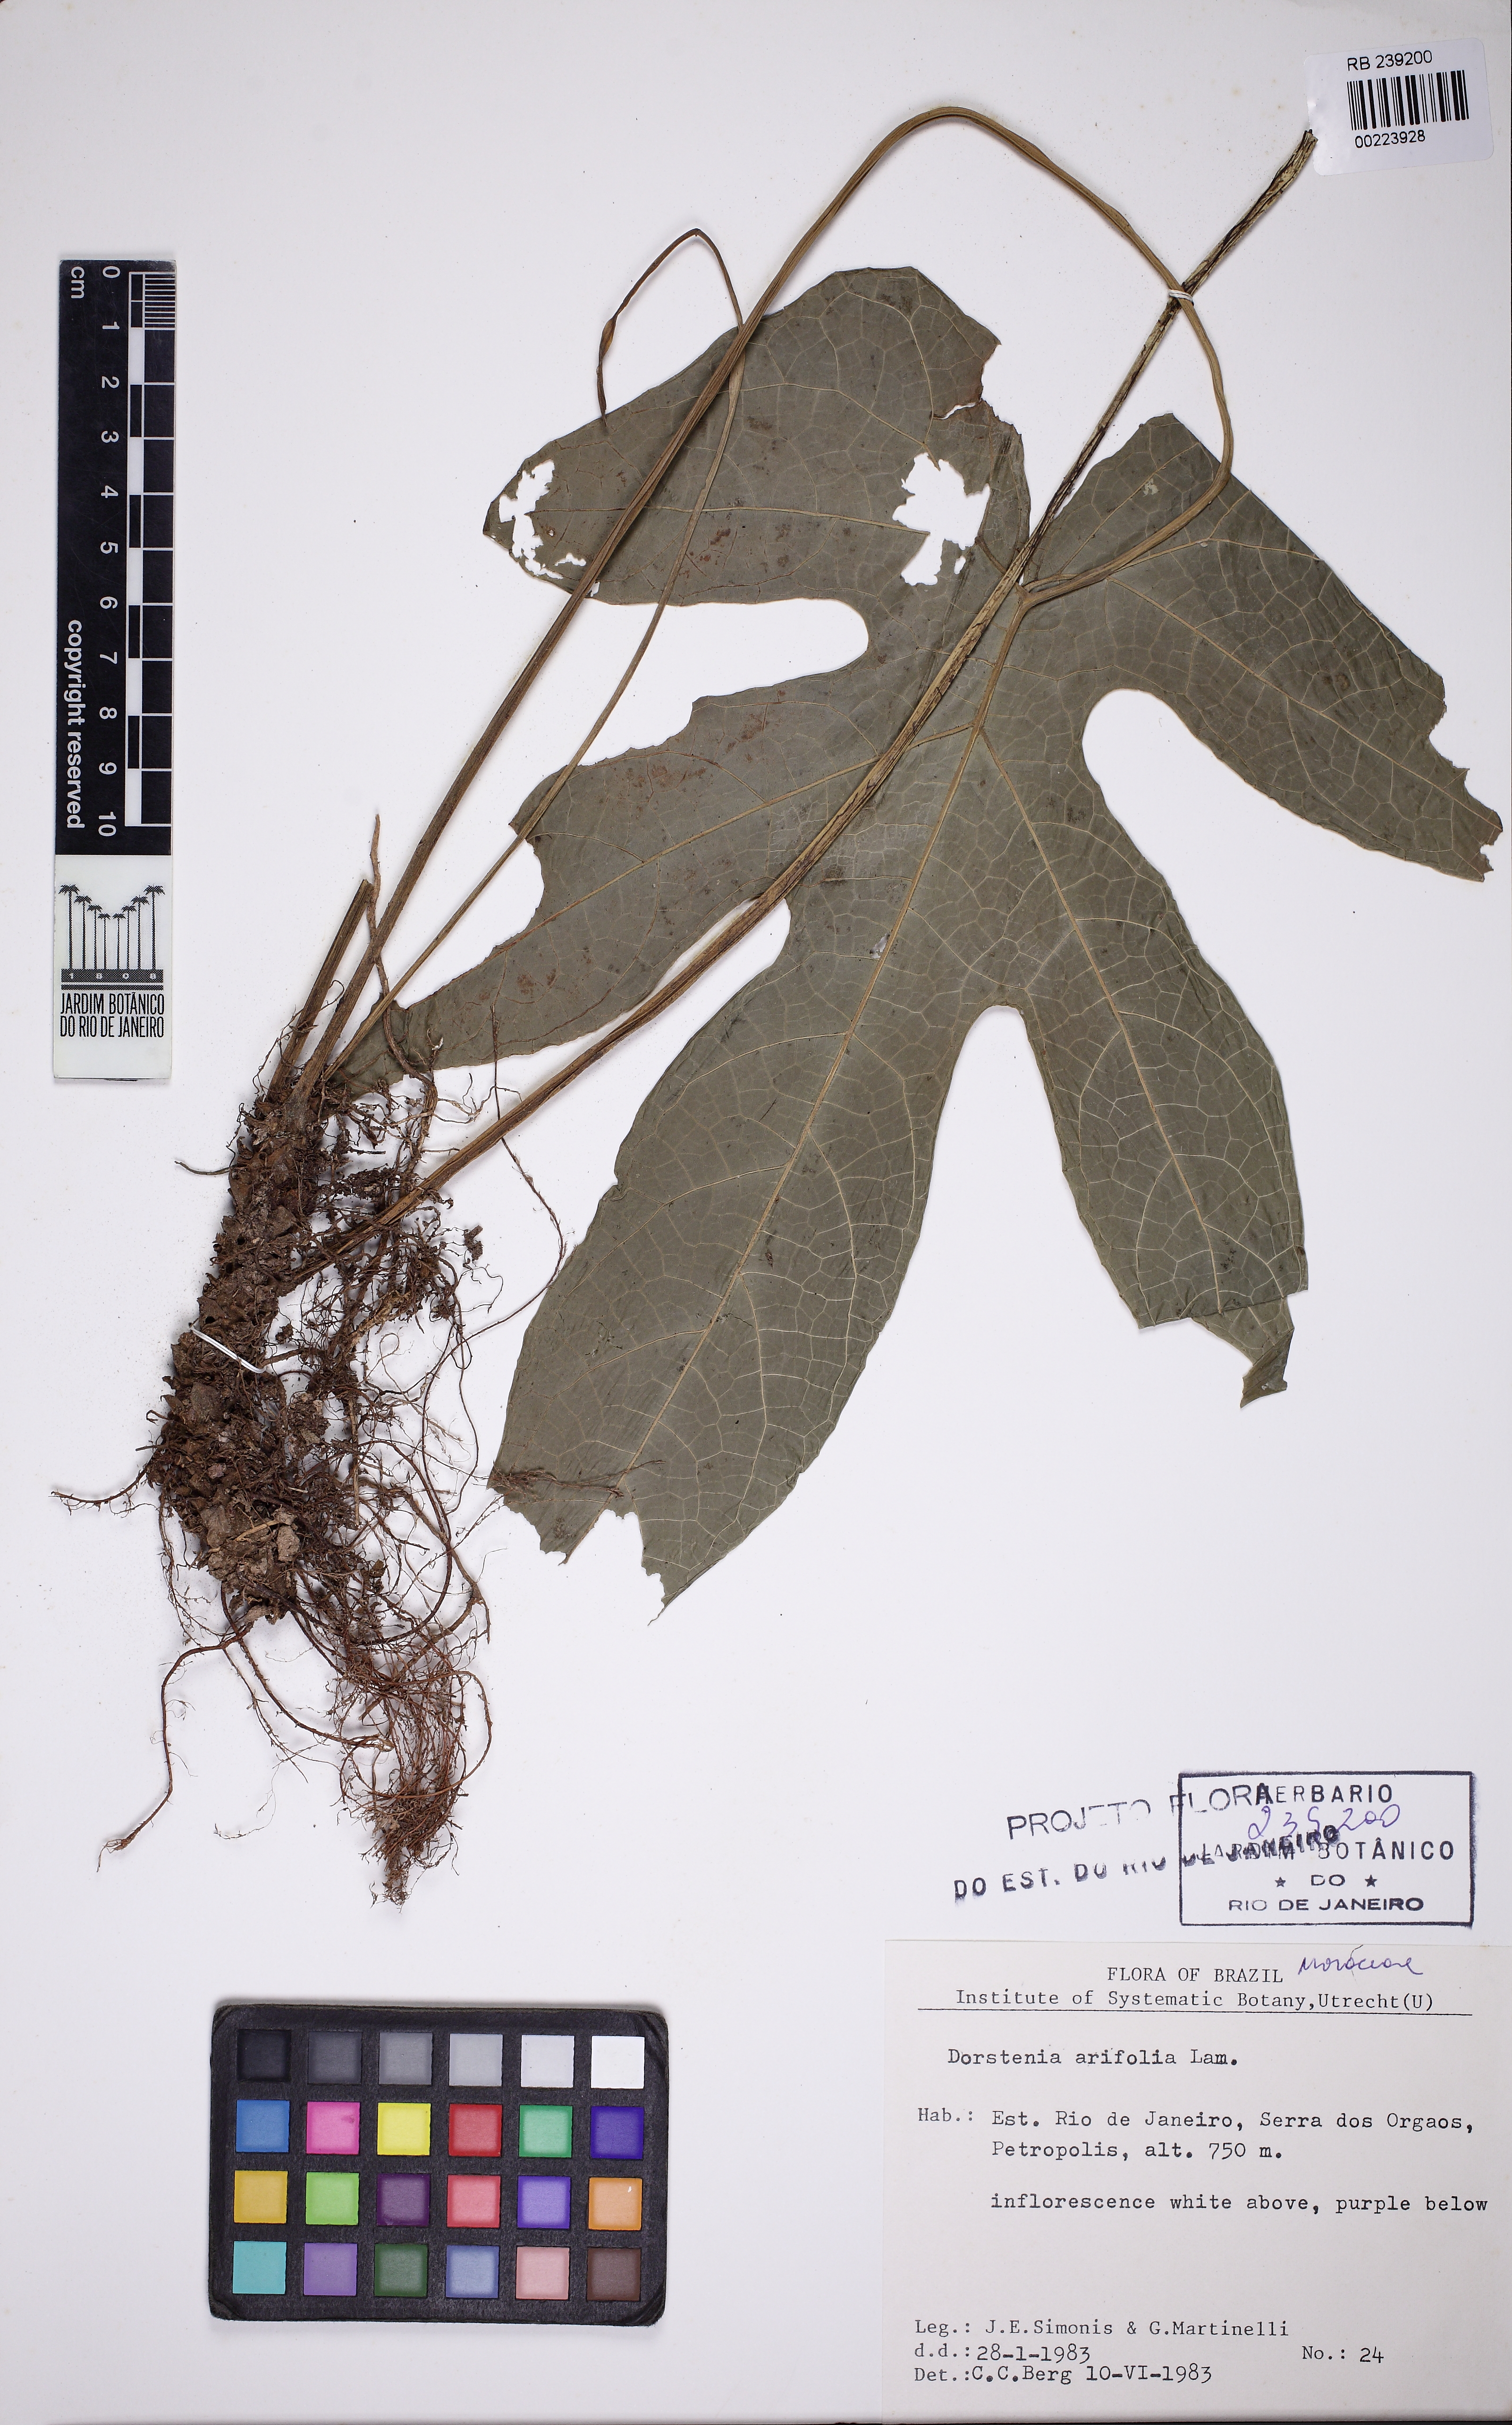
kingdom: Plantae
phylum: Tracheophyta
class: Magnoliopsida
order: Rosales
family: Moraceae
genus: Dorstenia
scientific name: Dorstenia arifolia
